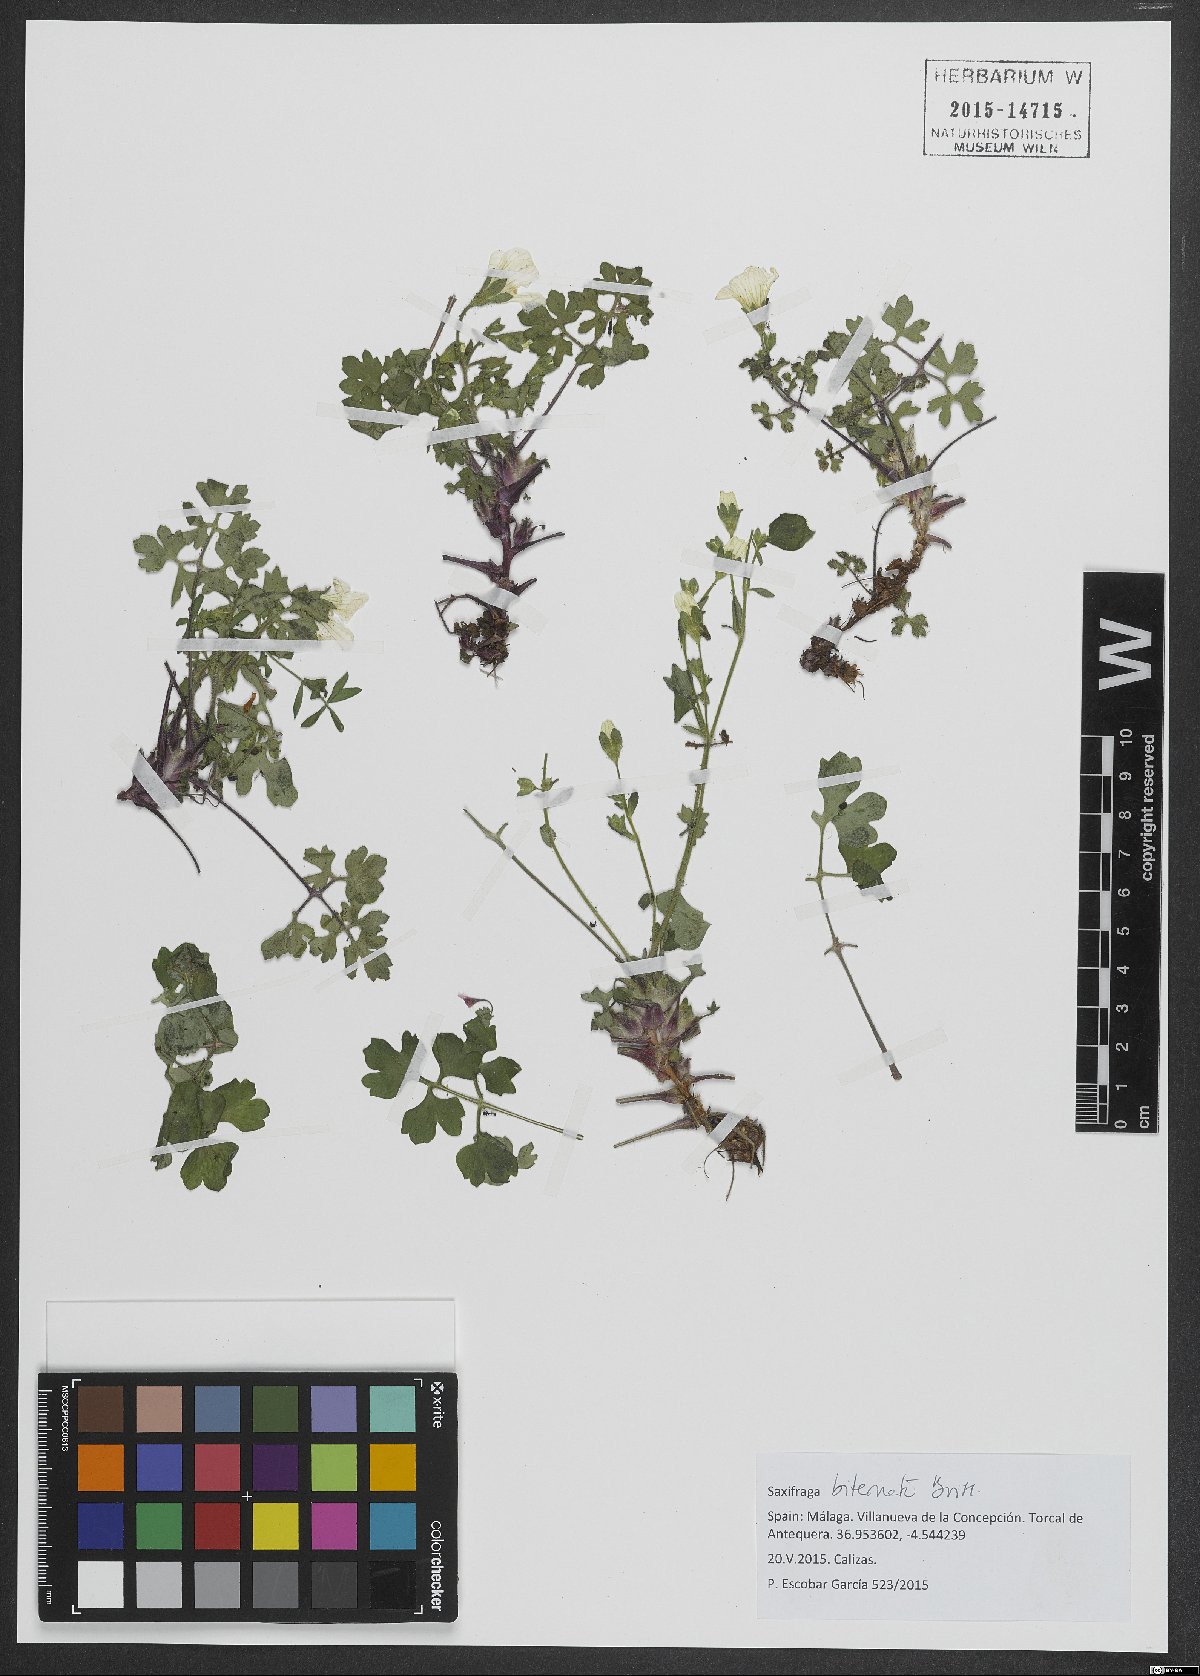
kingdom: Plantae
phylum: Tracheophyta
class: Magnoliopsida
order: Saxifragales
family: Saxifragaceae
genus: Saxifraga
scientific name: Saxifraga biternata
